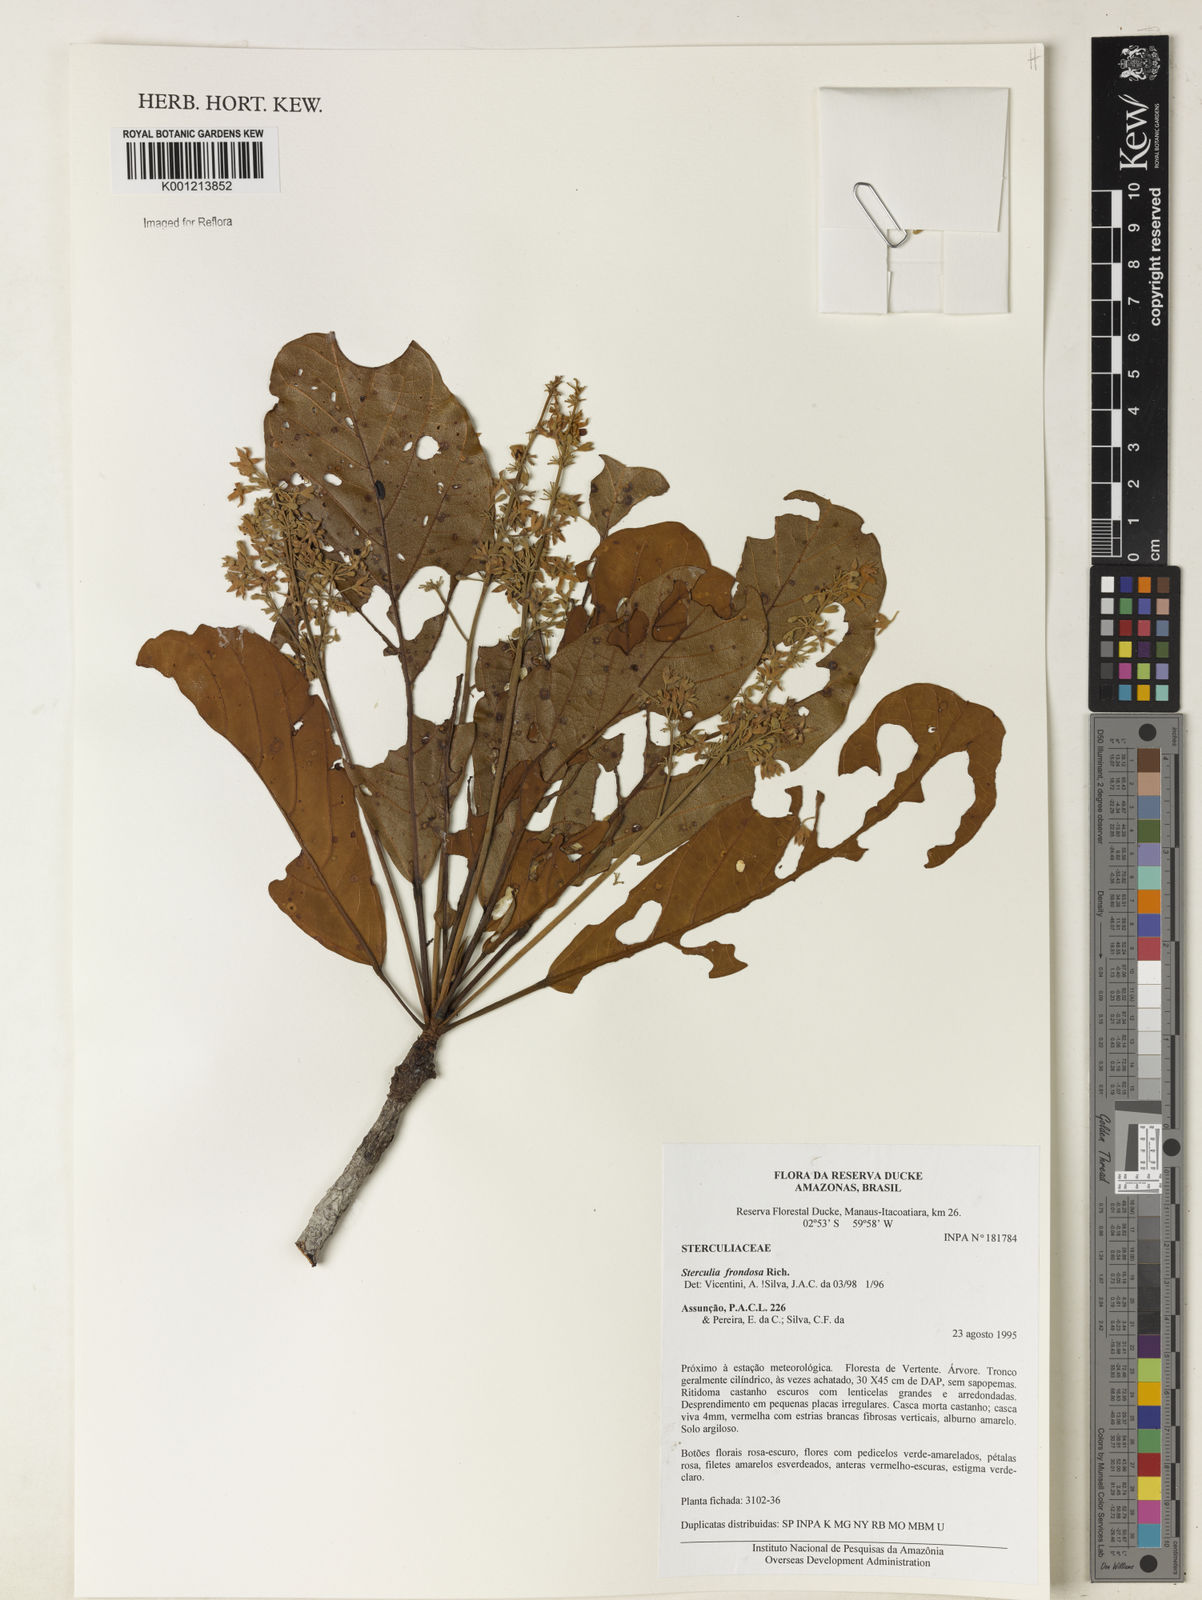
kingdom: Plantae
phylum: Tracheophyta
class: Magnoliopsida
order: Malvales
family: Malvaceae
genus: Sterculia
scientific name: Sterculia frondosa
